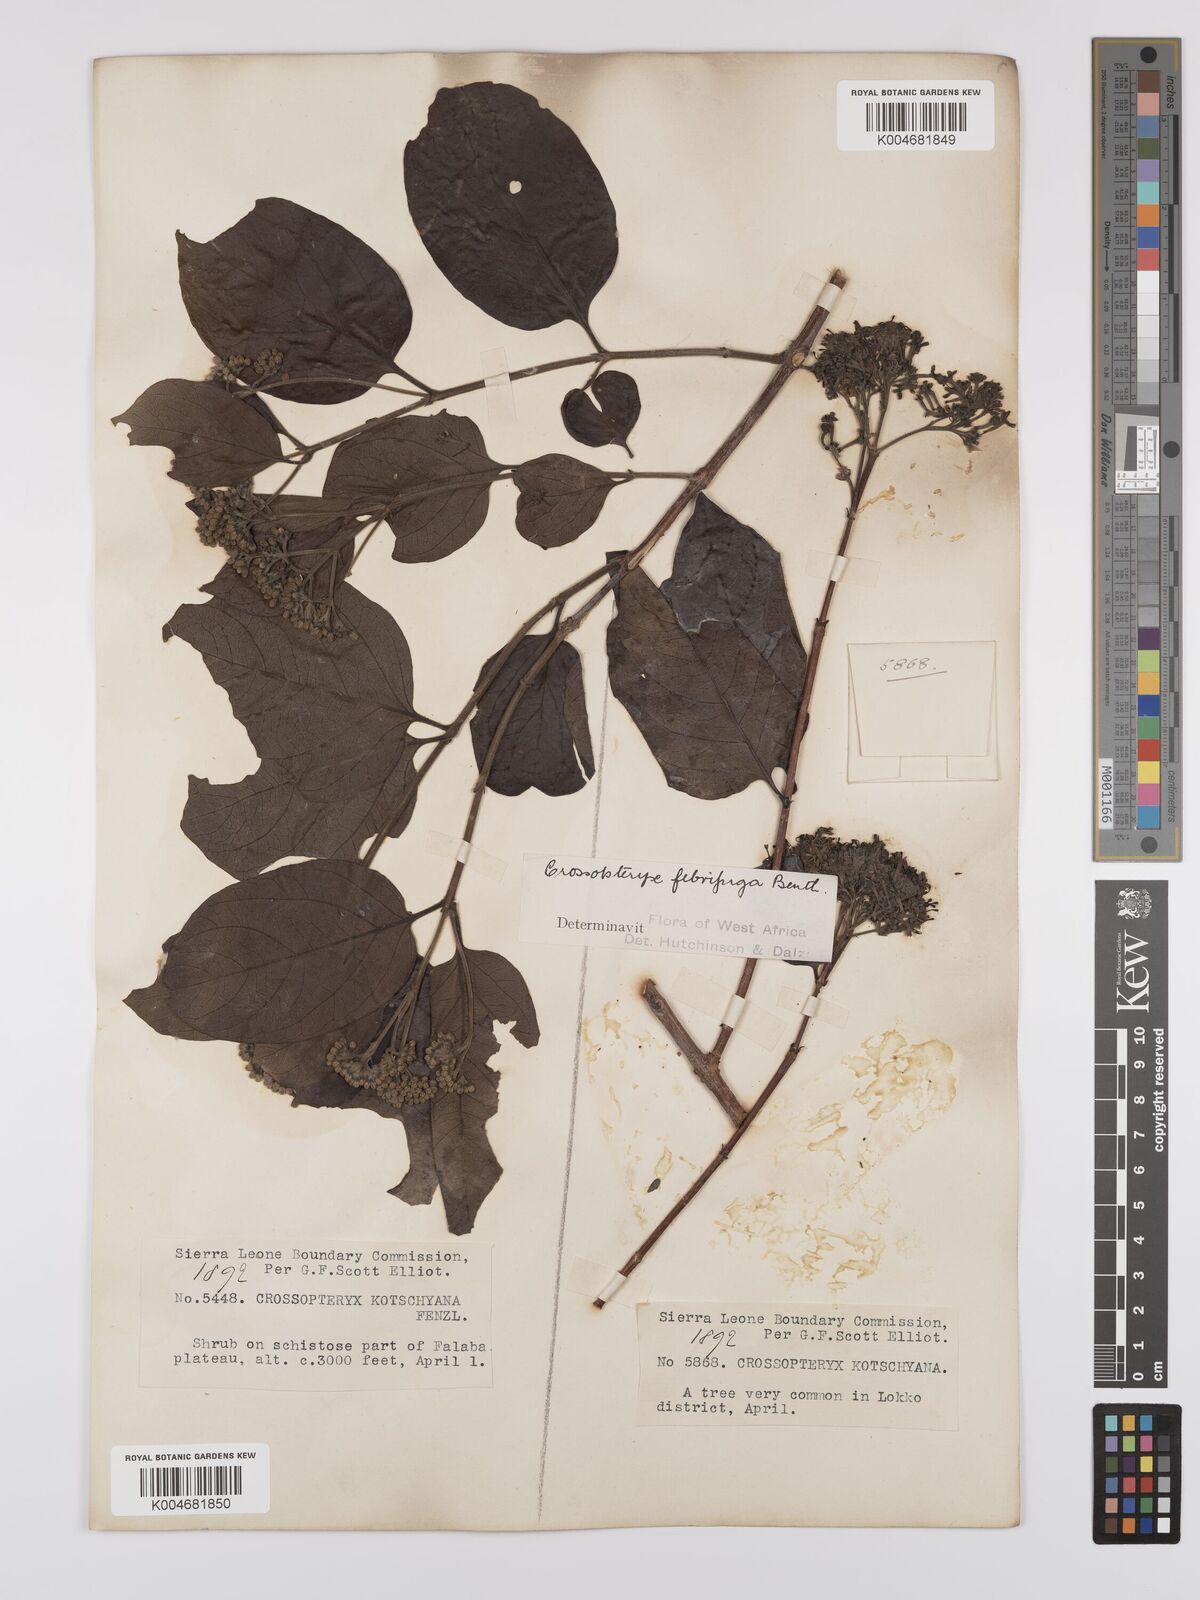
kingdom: Plantae
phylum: Tracheophyta
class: Magnoliopsida
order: Gentianales
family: Rubiaceae
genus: Crossopteryx
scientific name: Crossopteryx febrifuga
